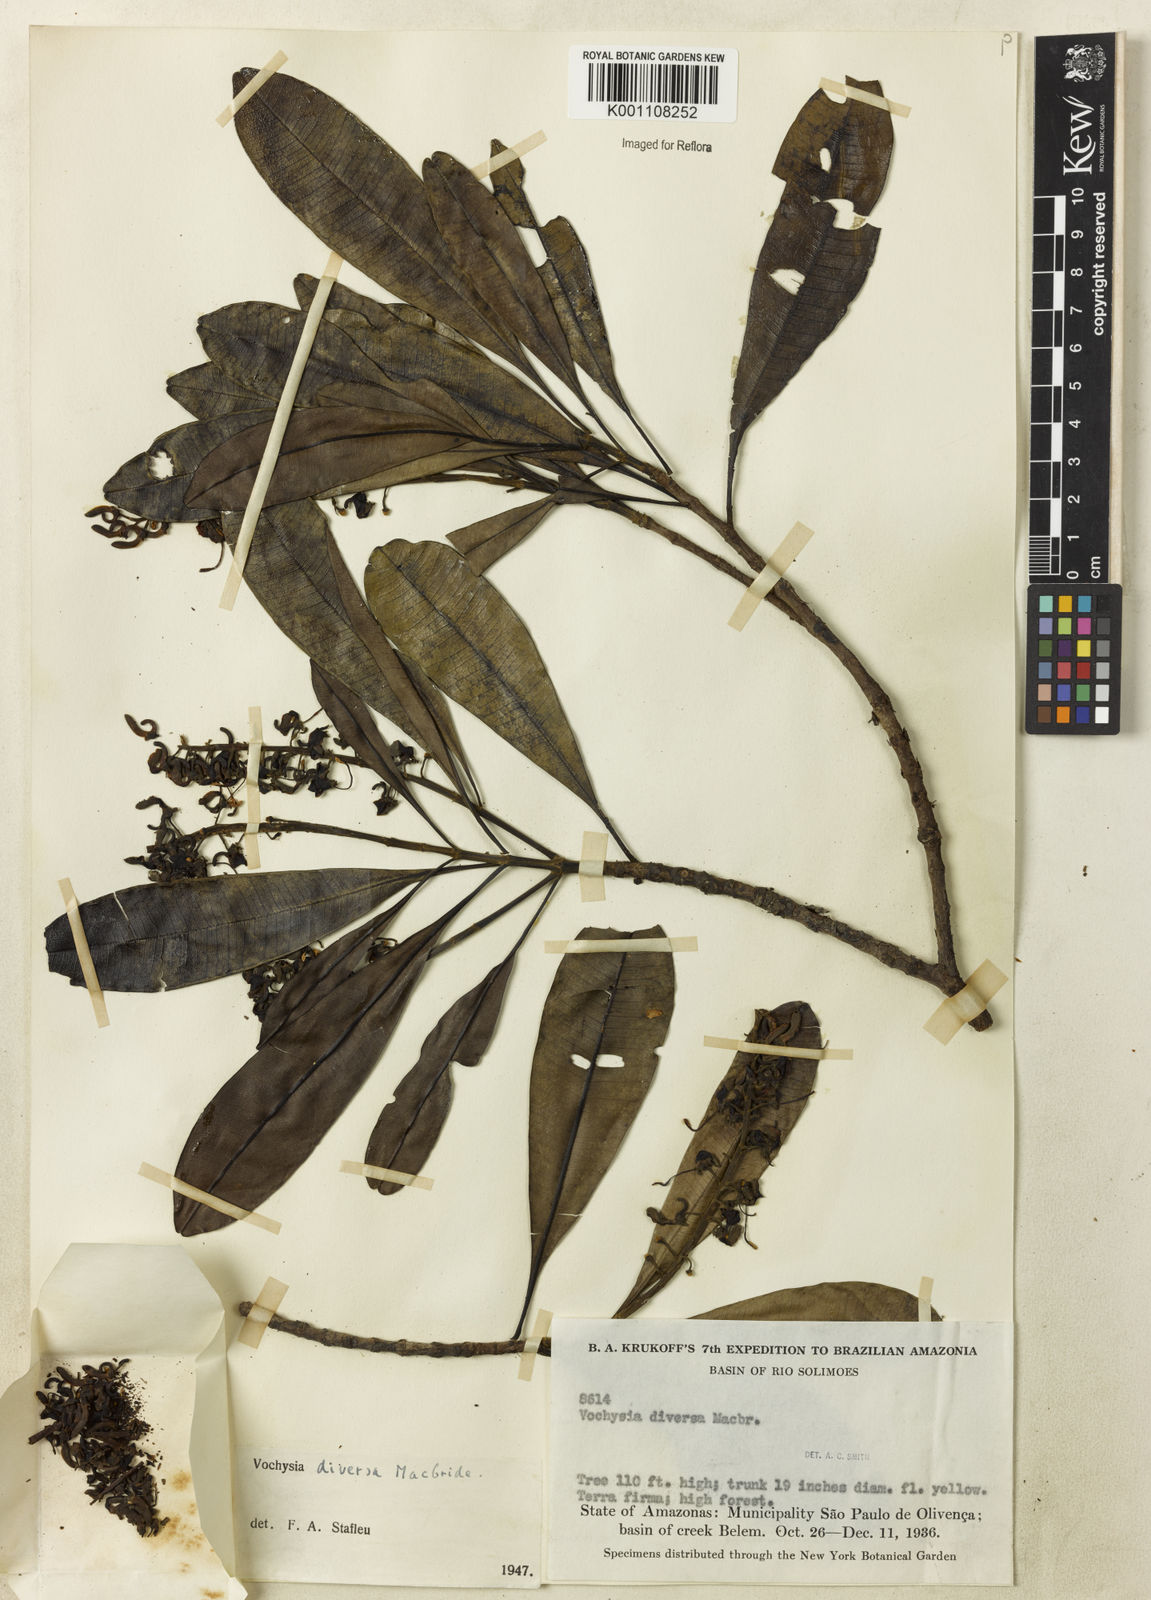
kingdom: Plantae
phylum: Tracheophyta
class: Magnoliopsida
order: Myrtales
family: Vochysiaceae
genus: Vochysia
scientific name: Vochysia diversa
